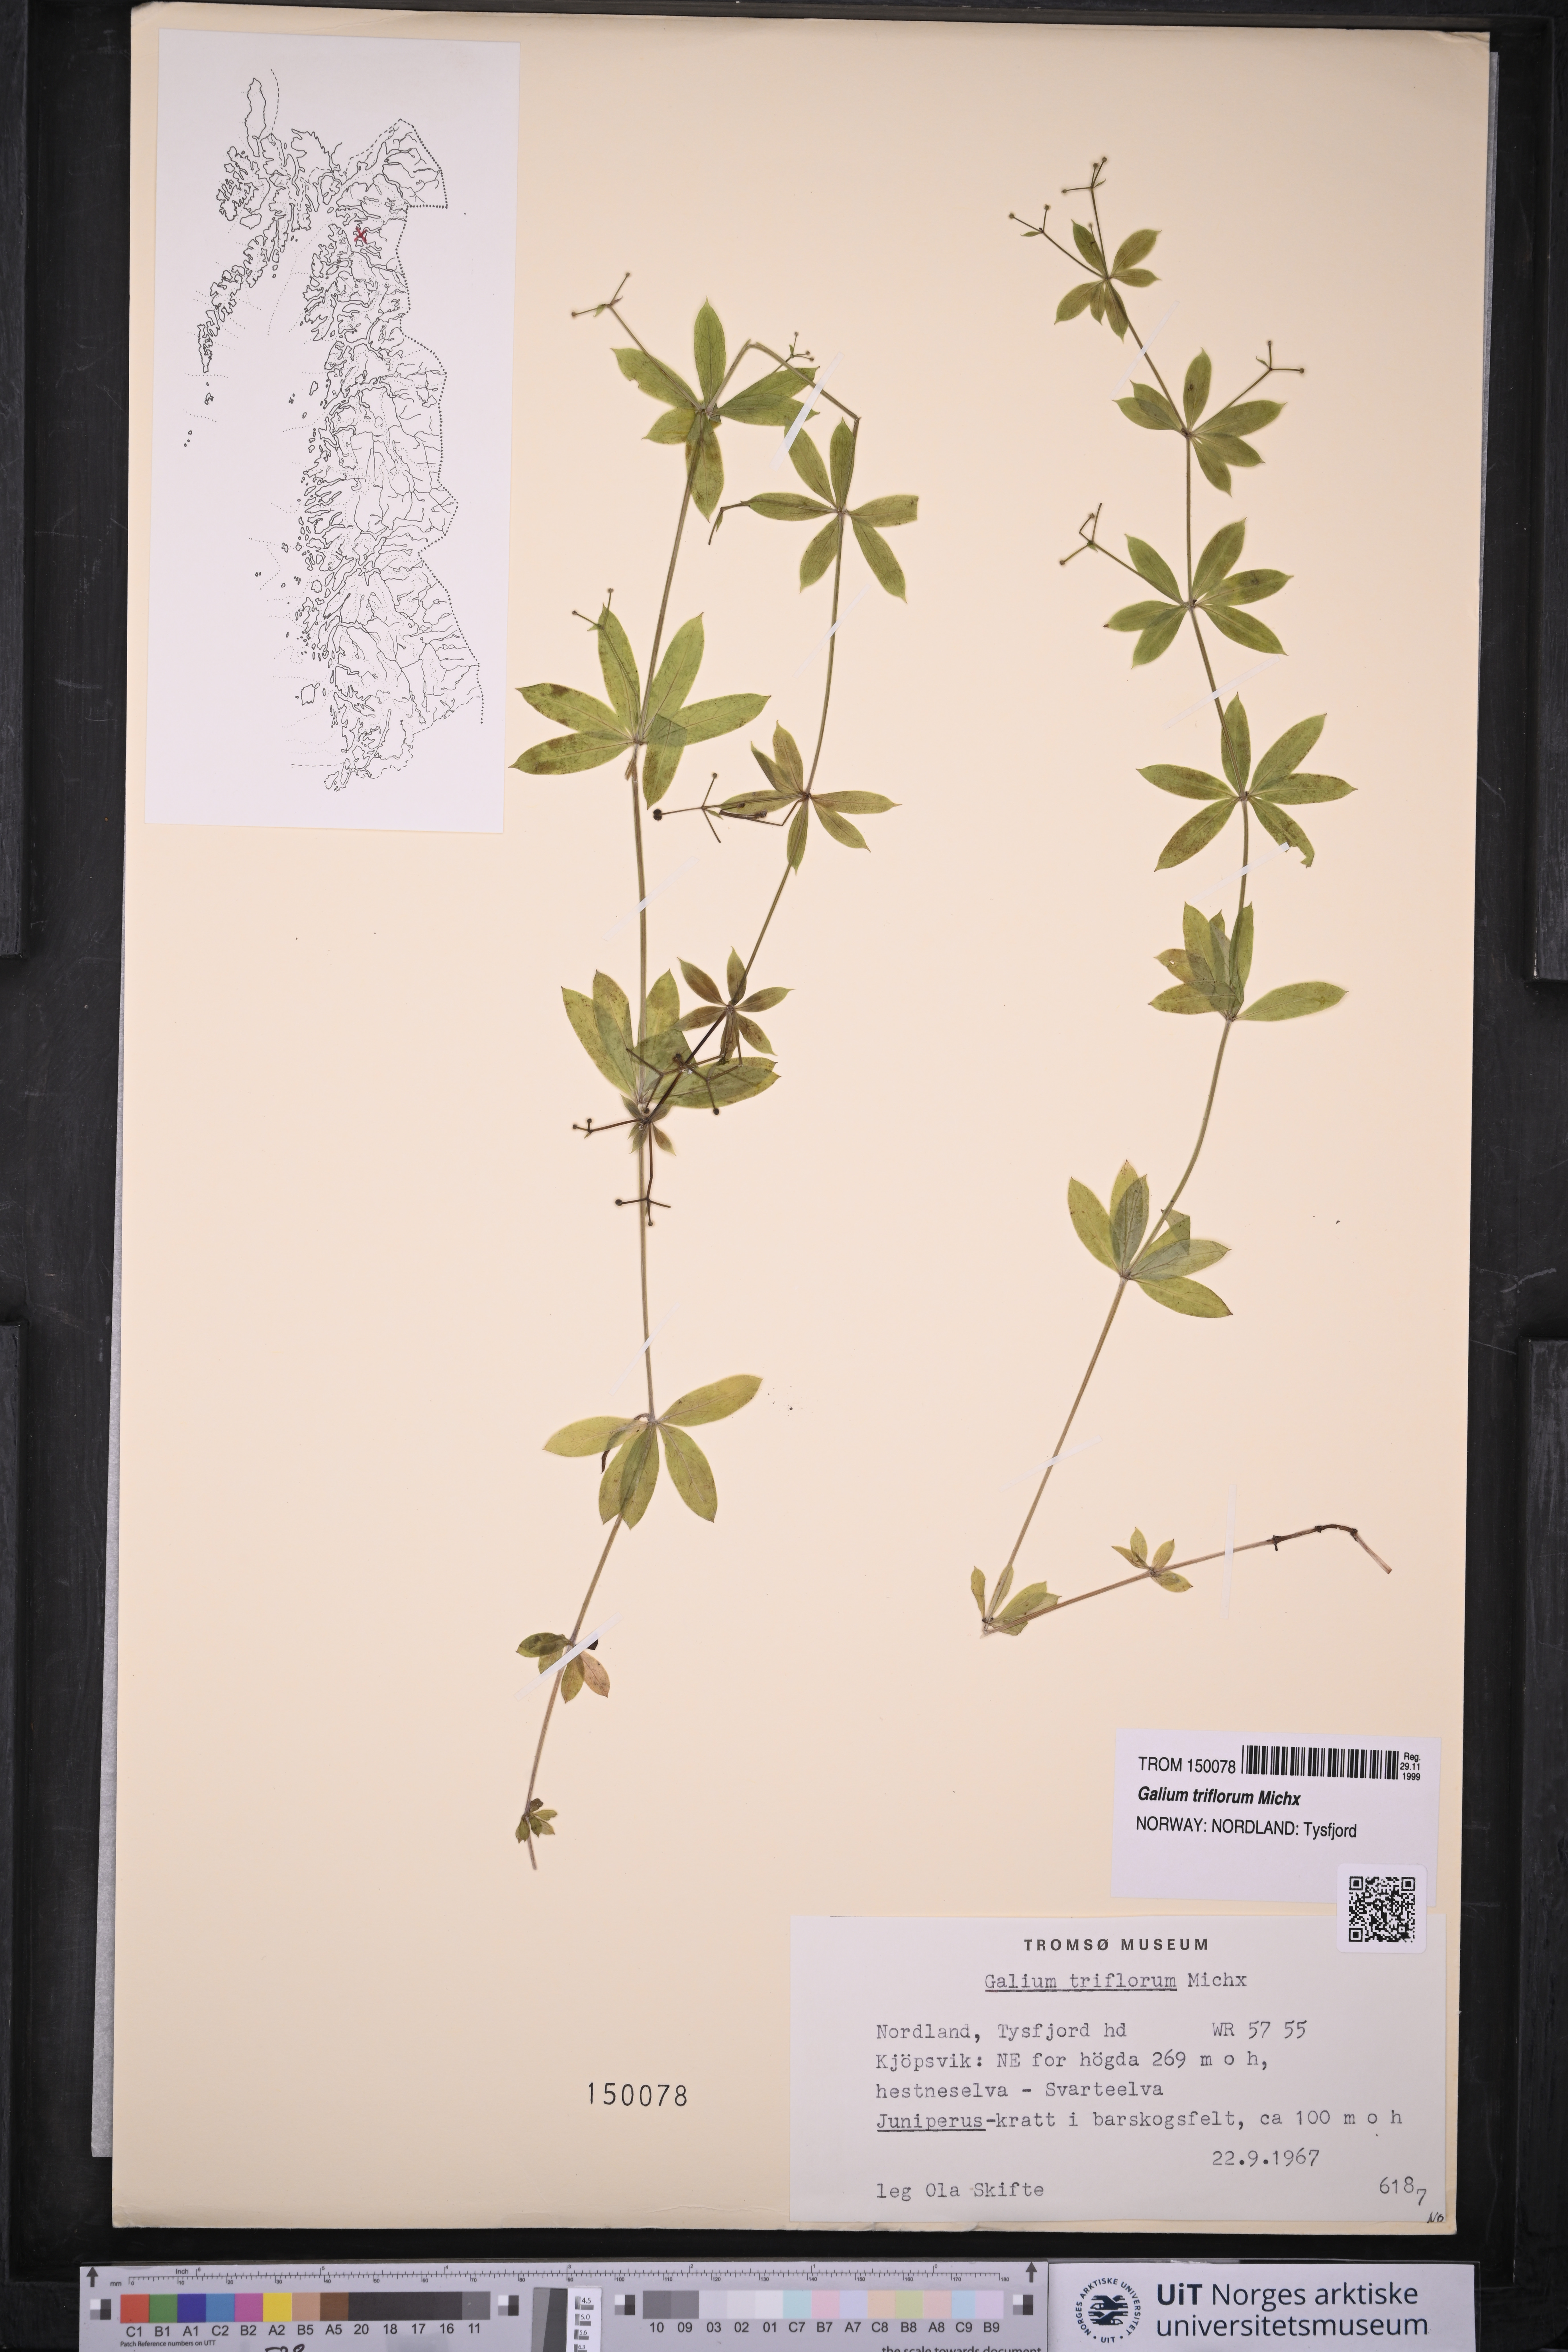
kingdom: Plantae
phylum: Tracheophyta
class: Magnoliopsida
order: Gentianales
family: Rubiaceae
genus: Galium
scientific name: Galium triflorum
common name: Fragrant bedstraw
